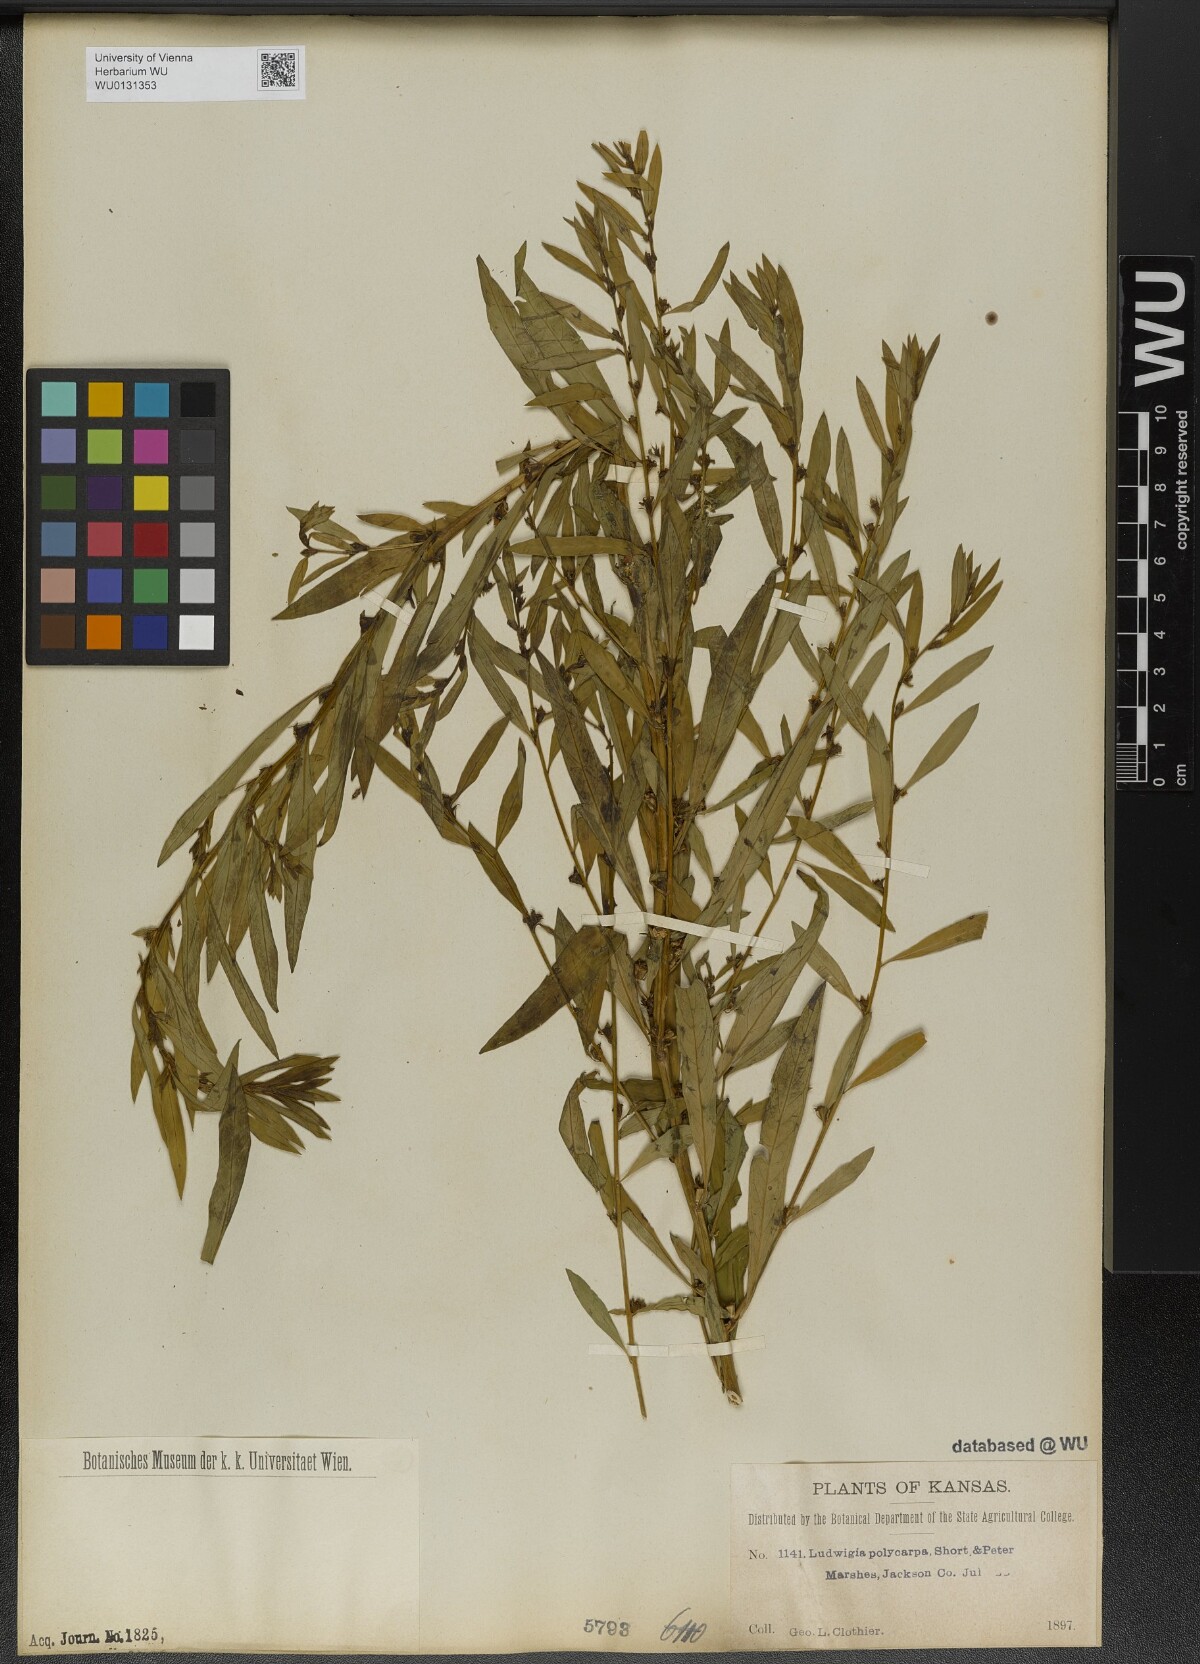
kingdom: Plantae
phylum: Tracheophyta
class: Magnoliopsida
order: Myrtales
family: Onagraceae
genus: Ludwigia
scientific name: Ludwigia polycarpa
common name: False loosestrife
